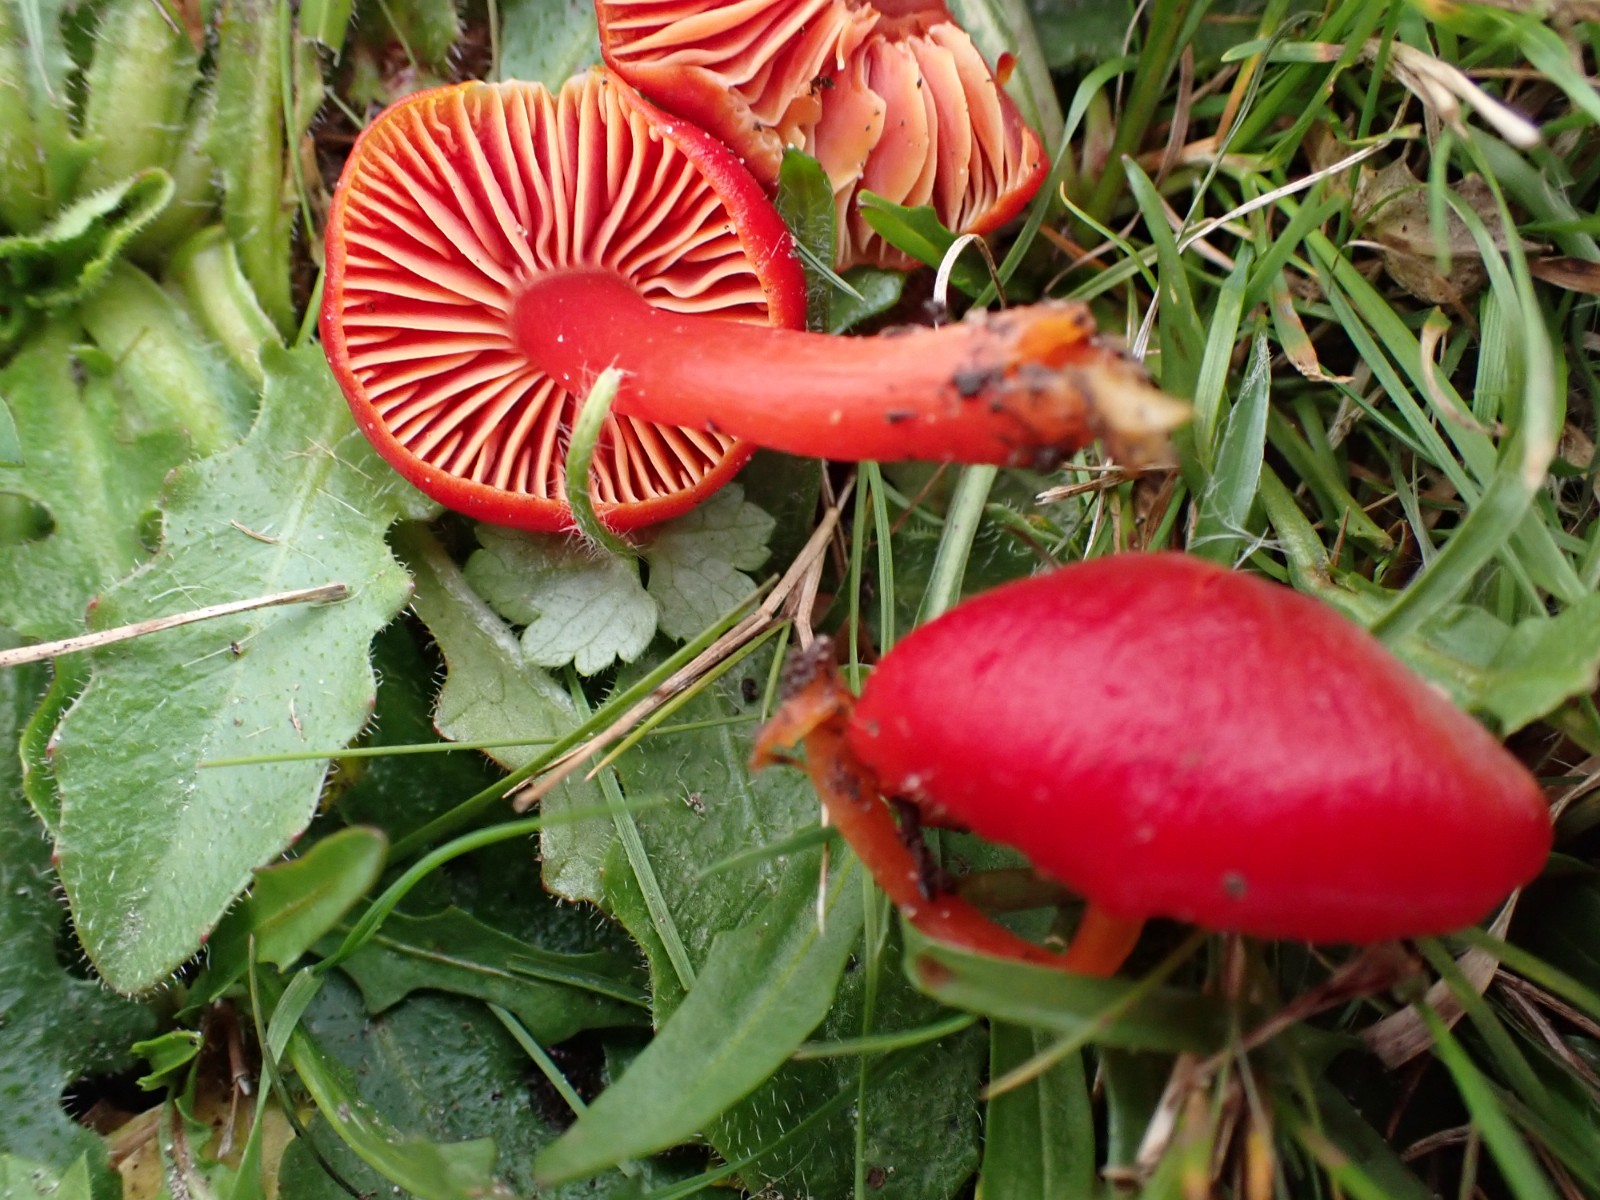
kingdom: Fungi
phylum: Basidiomycota
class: Agaricomycetes
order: Agaricales
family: Hygrophoraceae
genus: Hygrocybe
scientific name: Hygrocybe coccinea
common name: cinnober-vokshat
